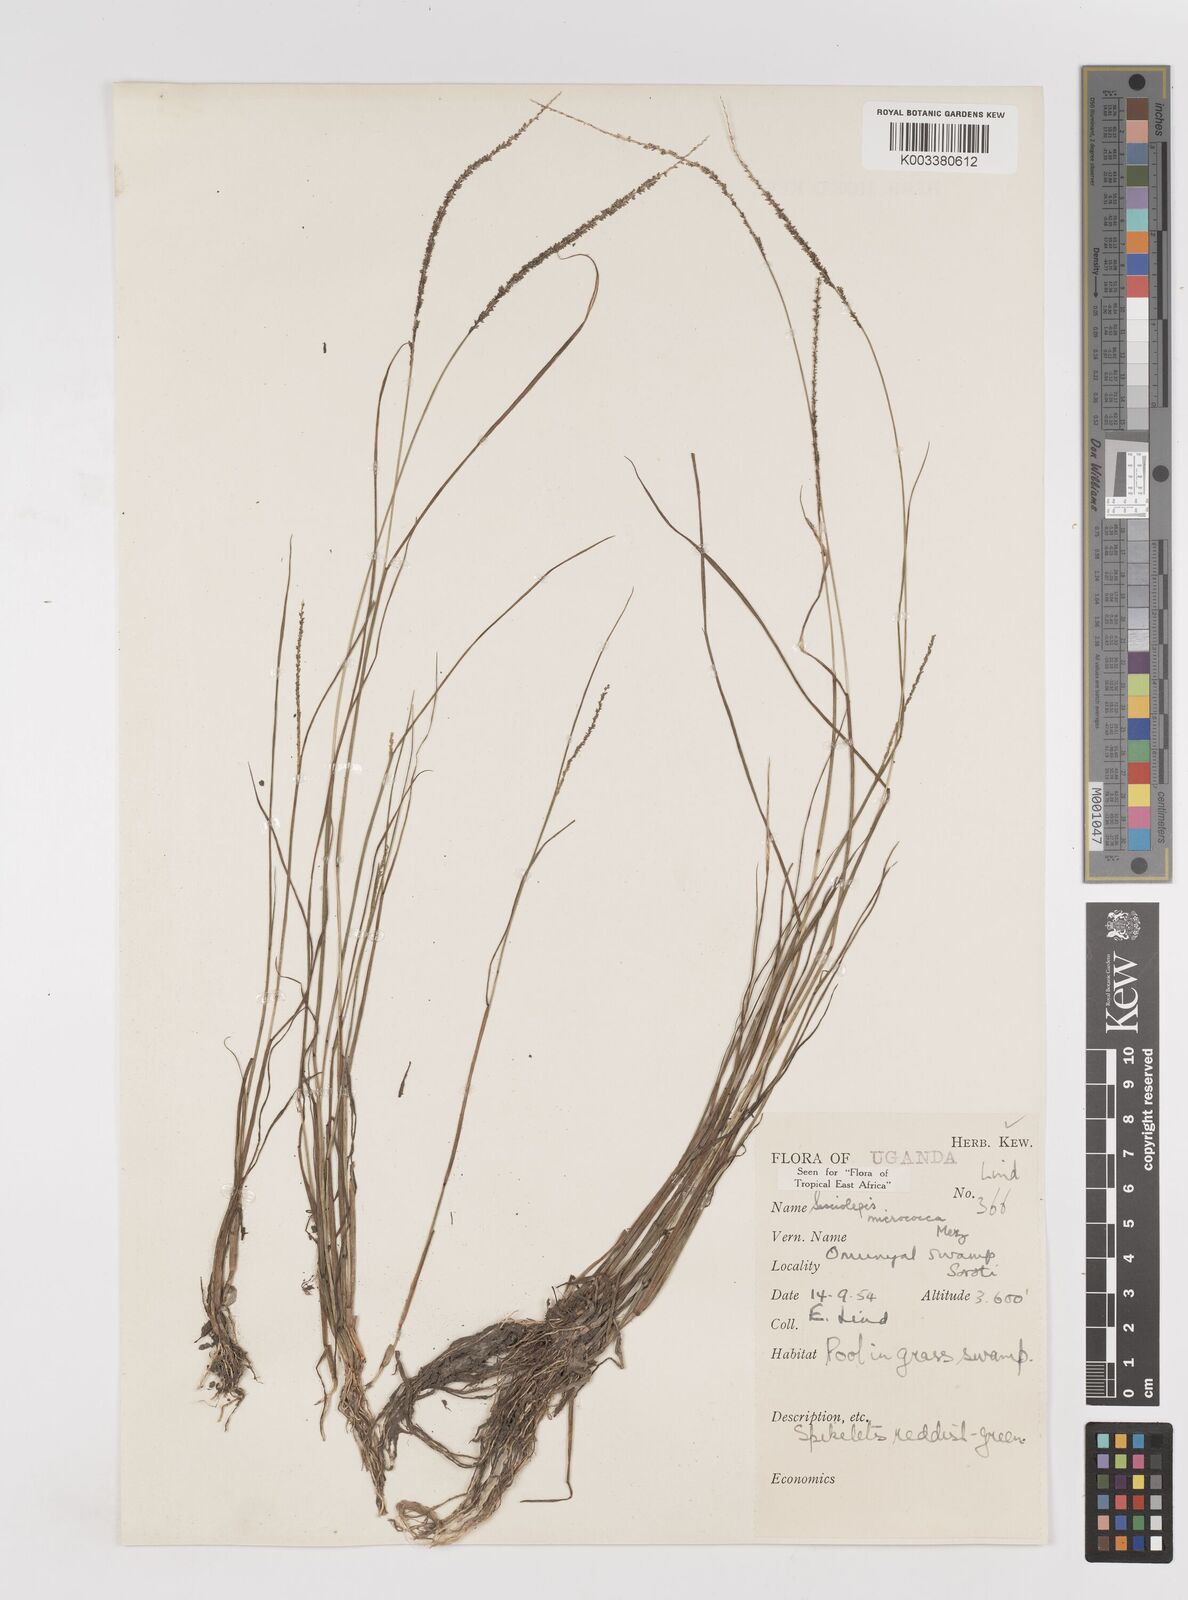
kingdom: Plantae
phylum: Tracheophyta
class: Liliopsida
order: Poales
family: Poaceae
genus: Sacciolepis
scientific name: Sacciolepis micrococca
